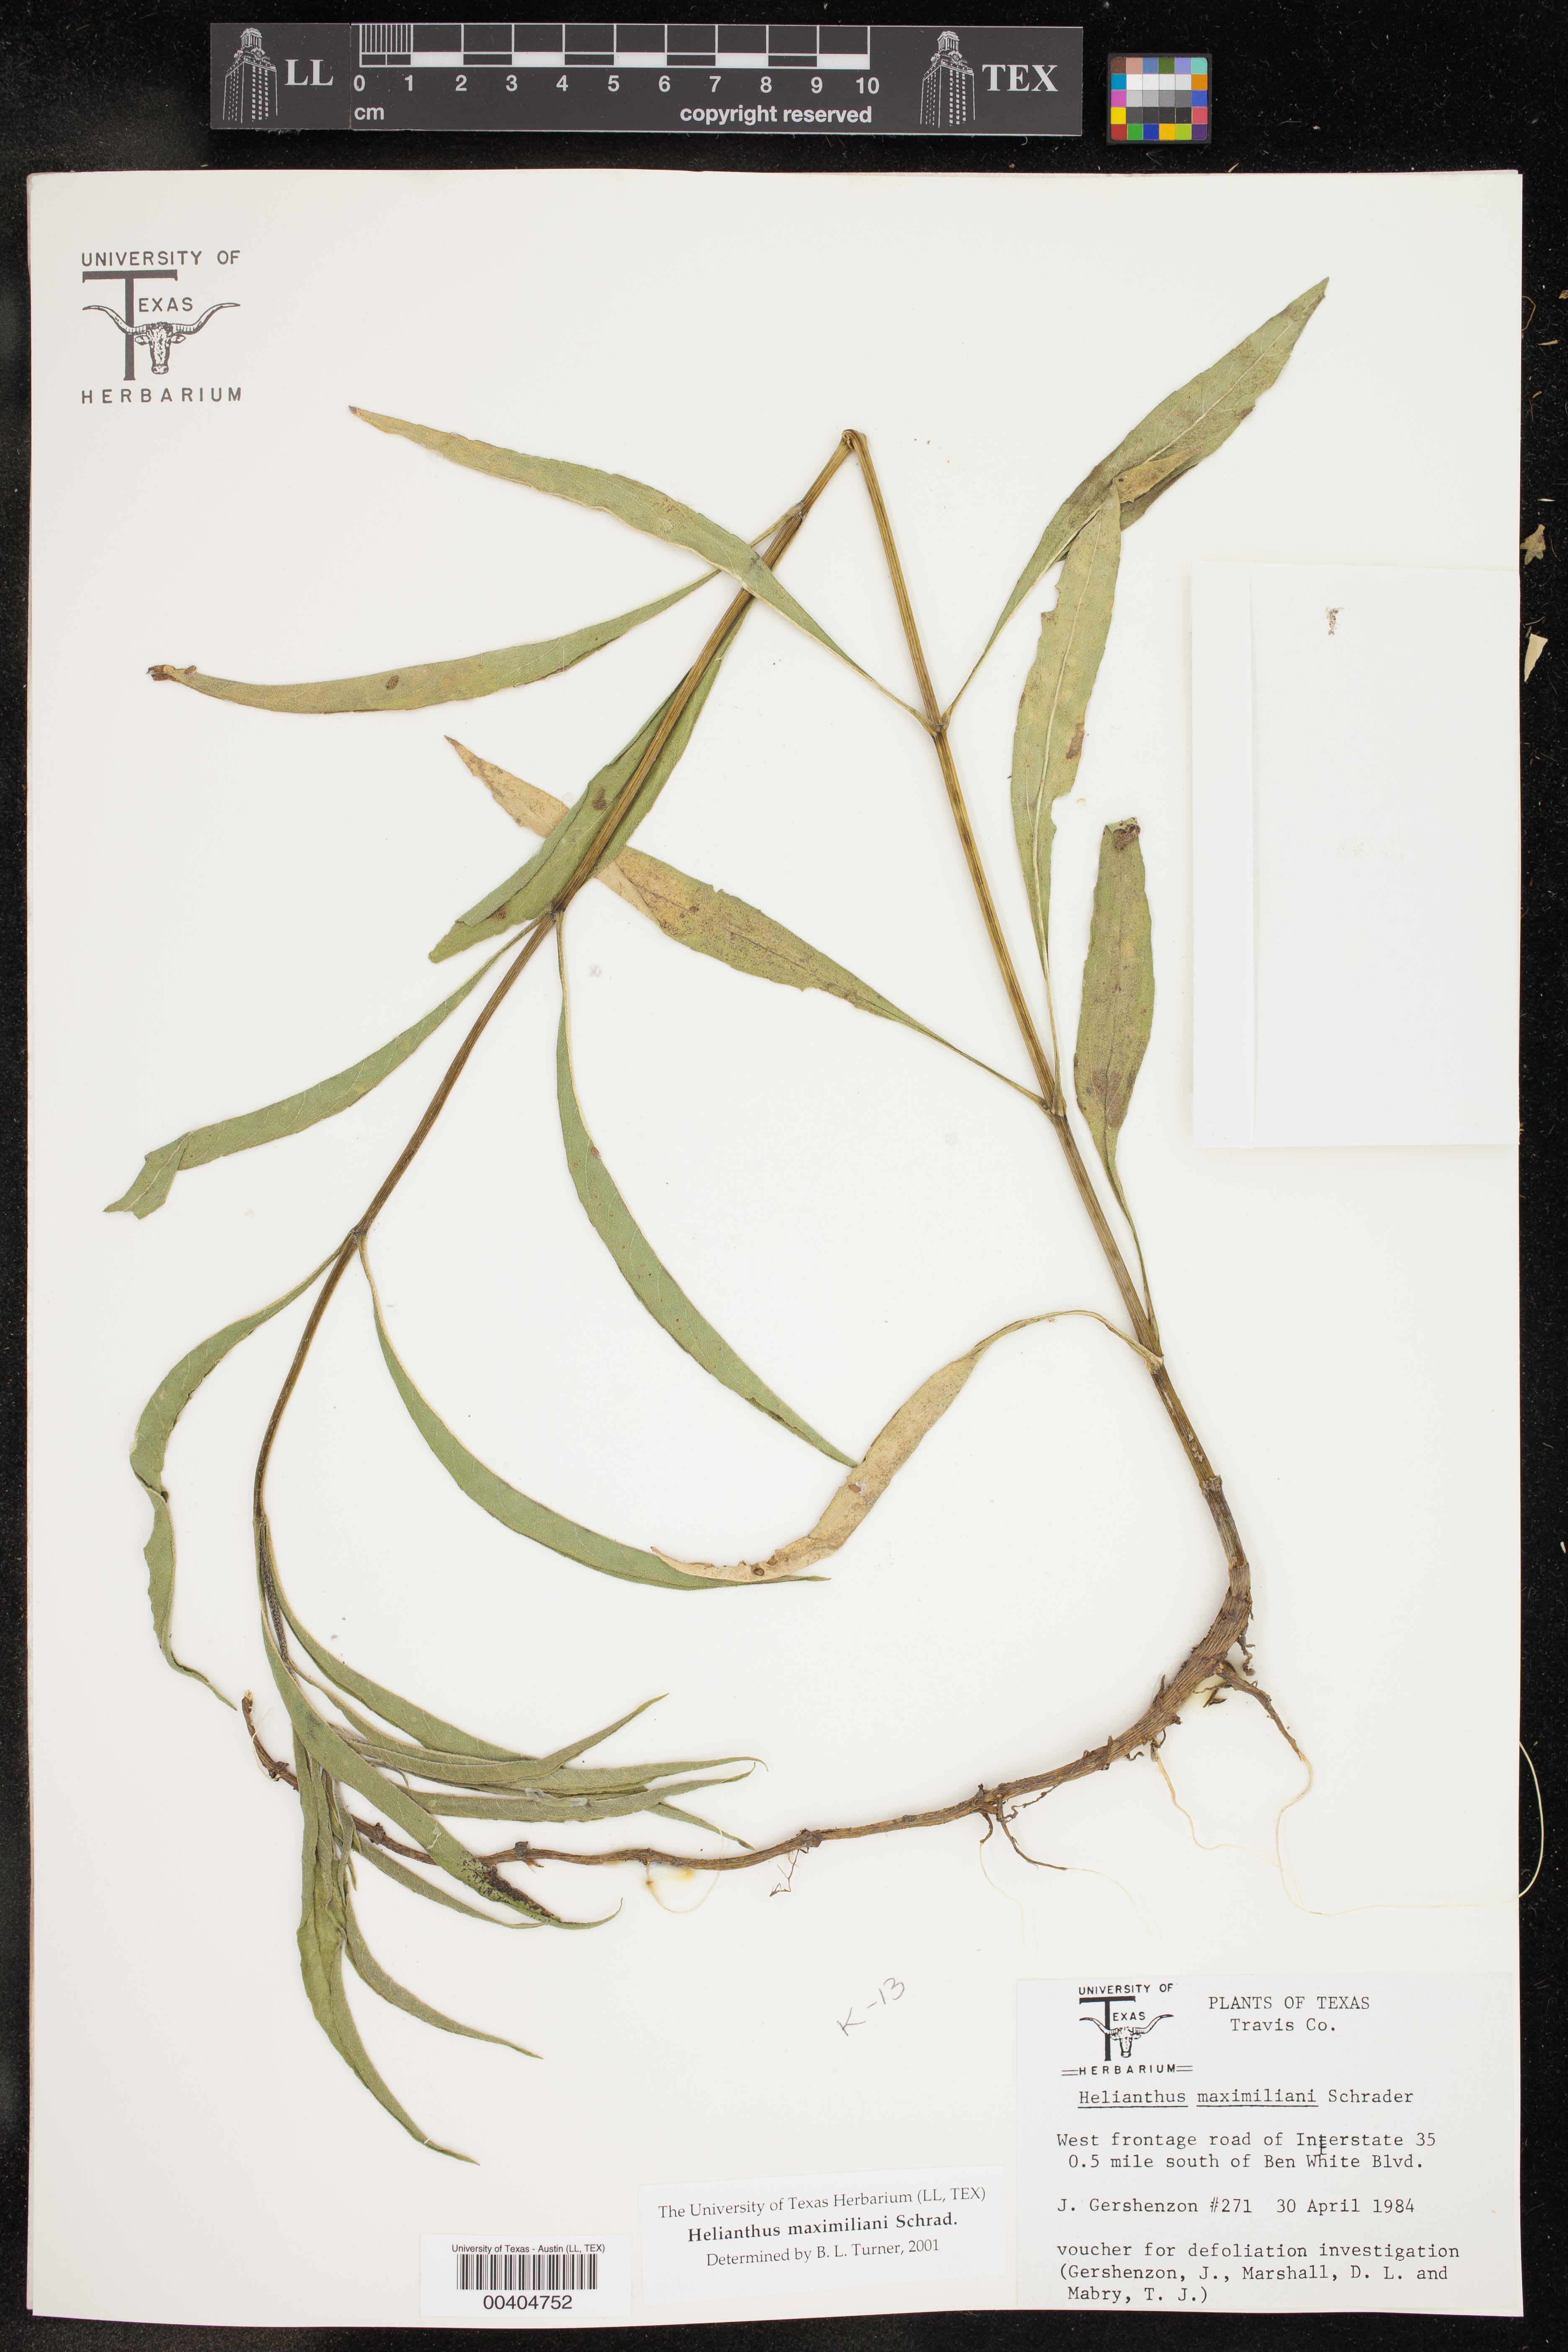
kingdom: Plantae
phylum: Tracheophyta
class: Magnoliopsida
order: Asterales
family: Asteraceae
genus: Helianthus
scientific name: Helianthus maximiliani
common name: Maximilian's sunflower
